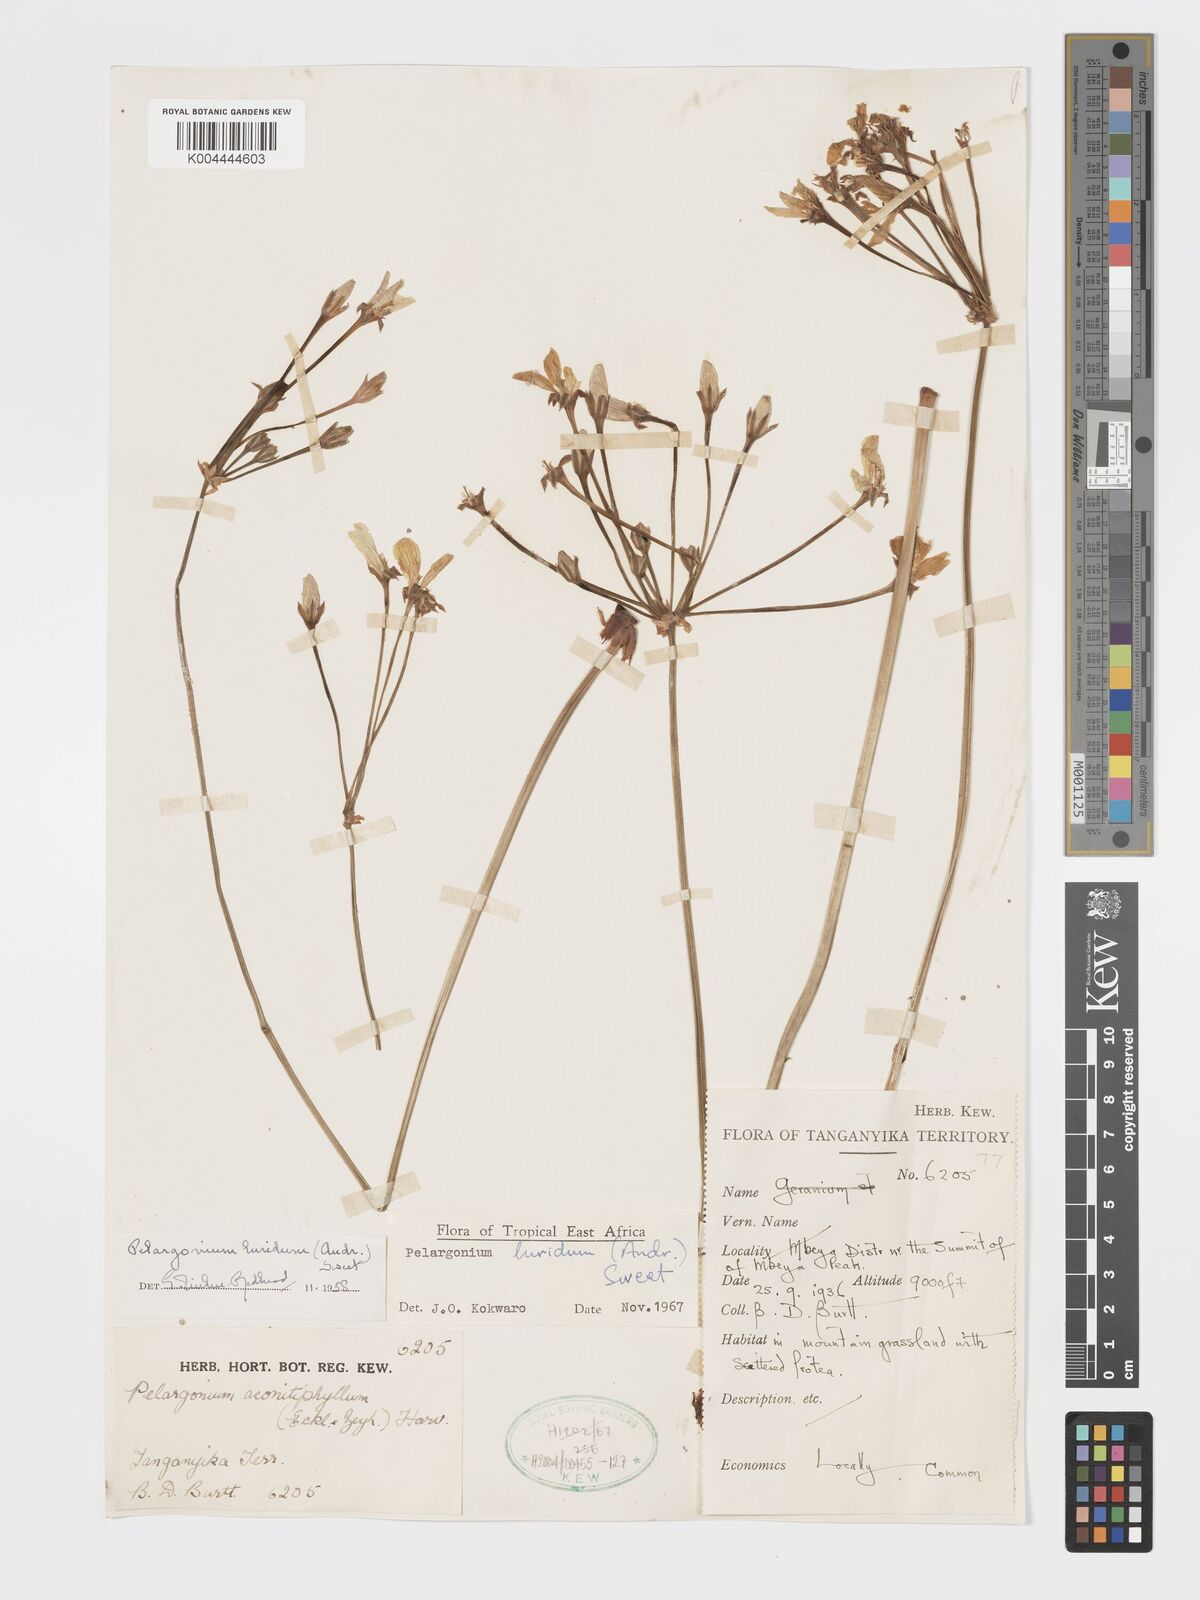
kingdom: Plantae
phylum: Tracheophyta
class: Magnoliopsida
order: Geraniales
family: Geraniaceae
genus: Pelargonium
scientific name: Pelargonium luridum
